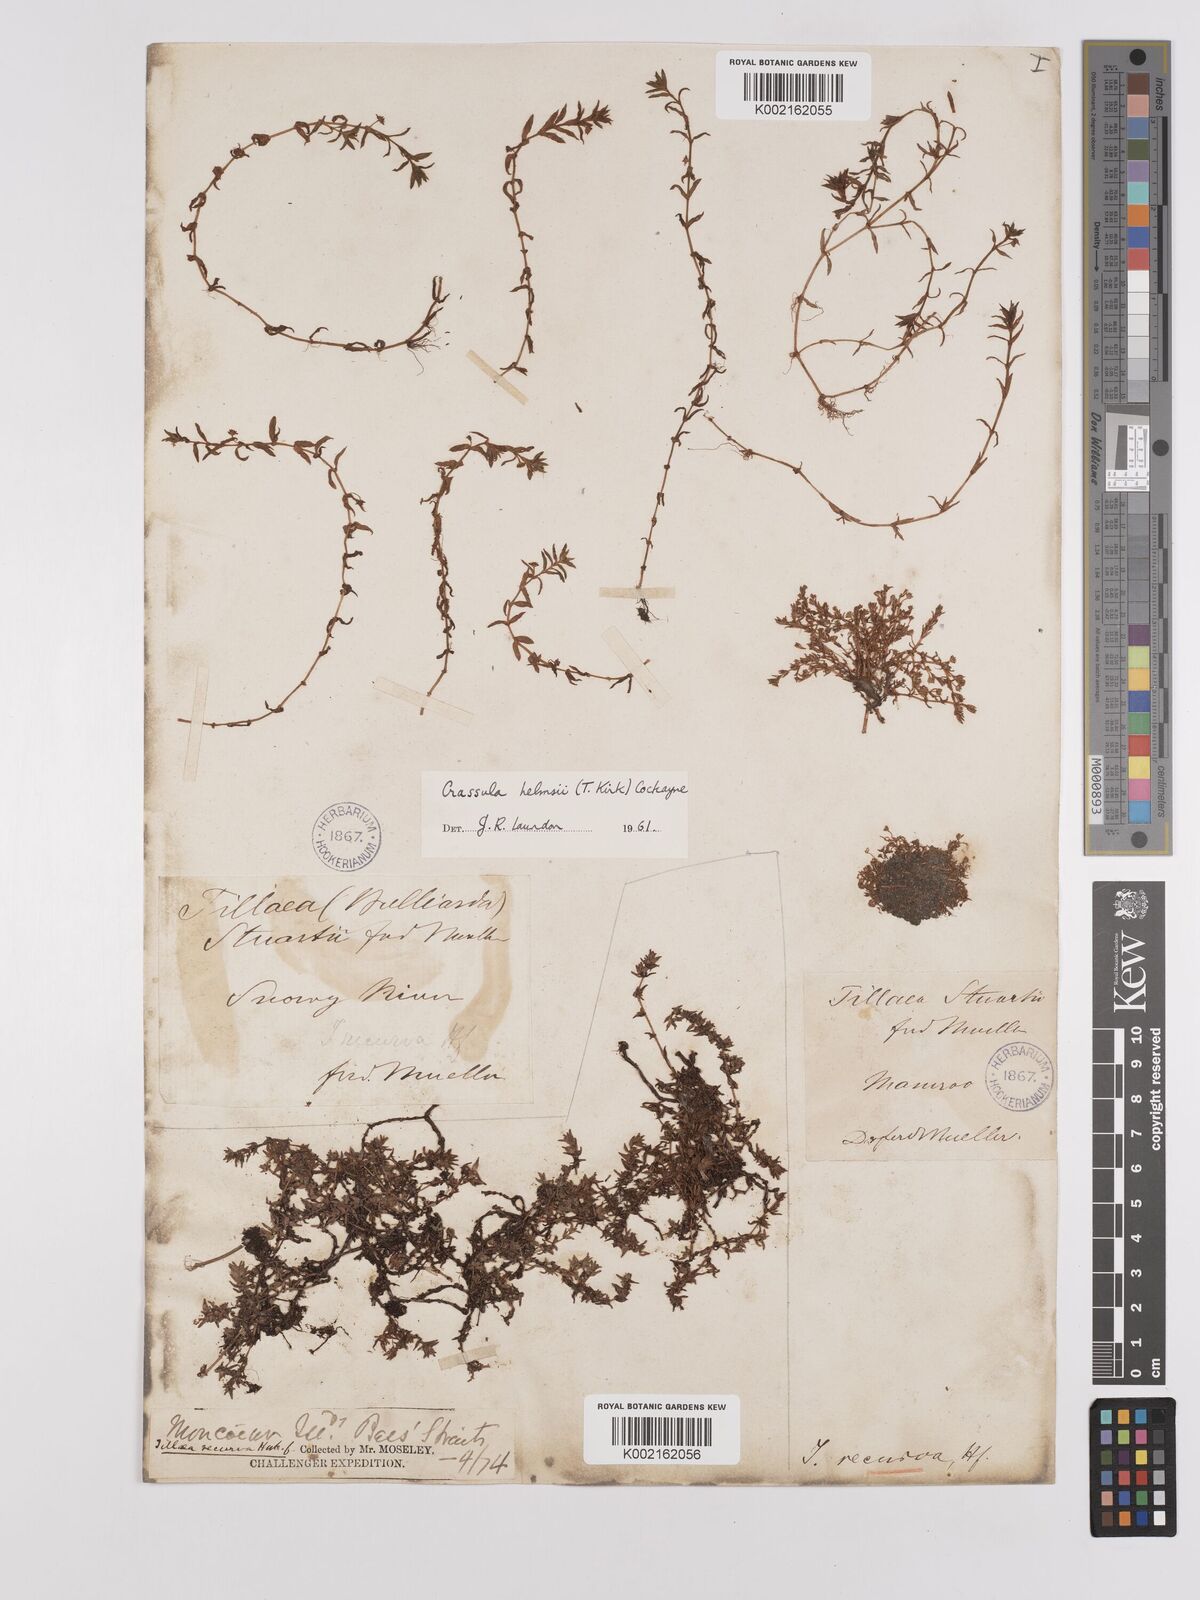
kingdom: Plantae
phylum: Tracheophyta
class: Magnoliopsida
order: Saxifragales
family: Crassulaceae
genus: Crassula
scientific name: Crassula helmsii
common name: New zealand pigmyweed
